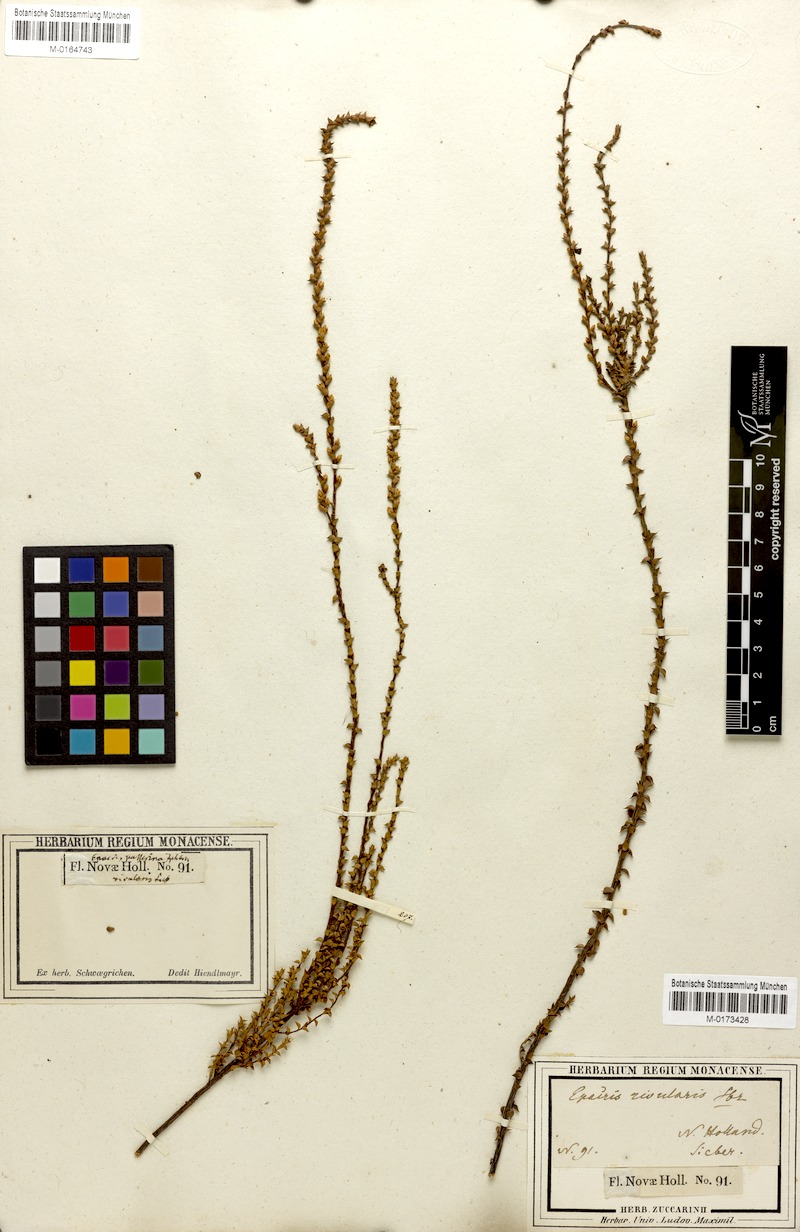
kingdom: Plantae
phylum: Tracheophyta
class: Magnoliopsida
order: Ericales
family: Ericaceae
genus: Epacris
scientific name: Epacris microphylla
